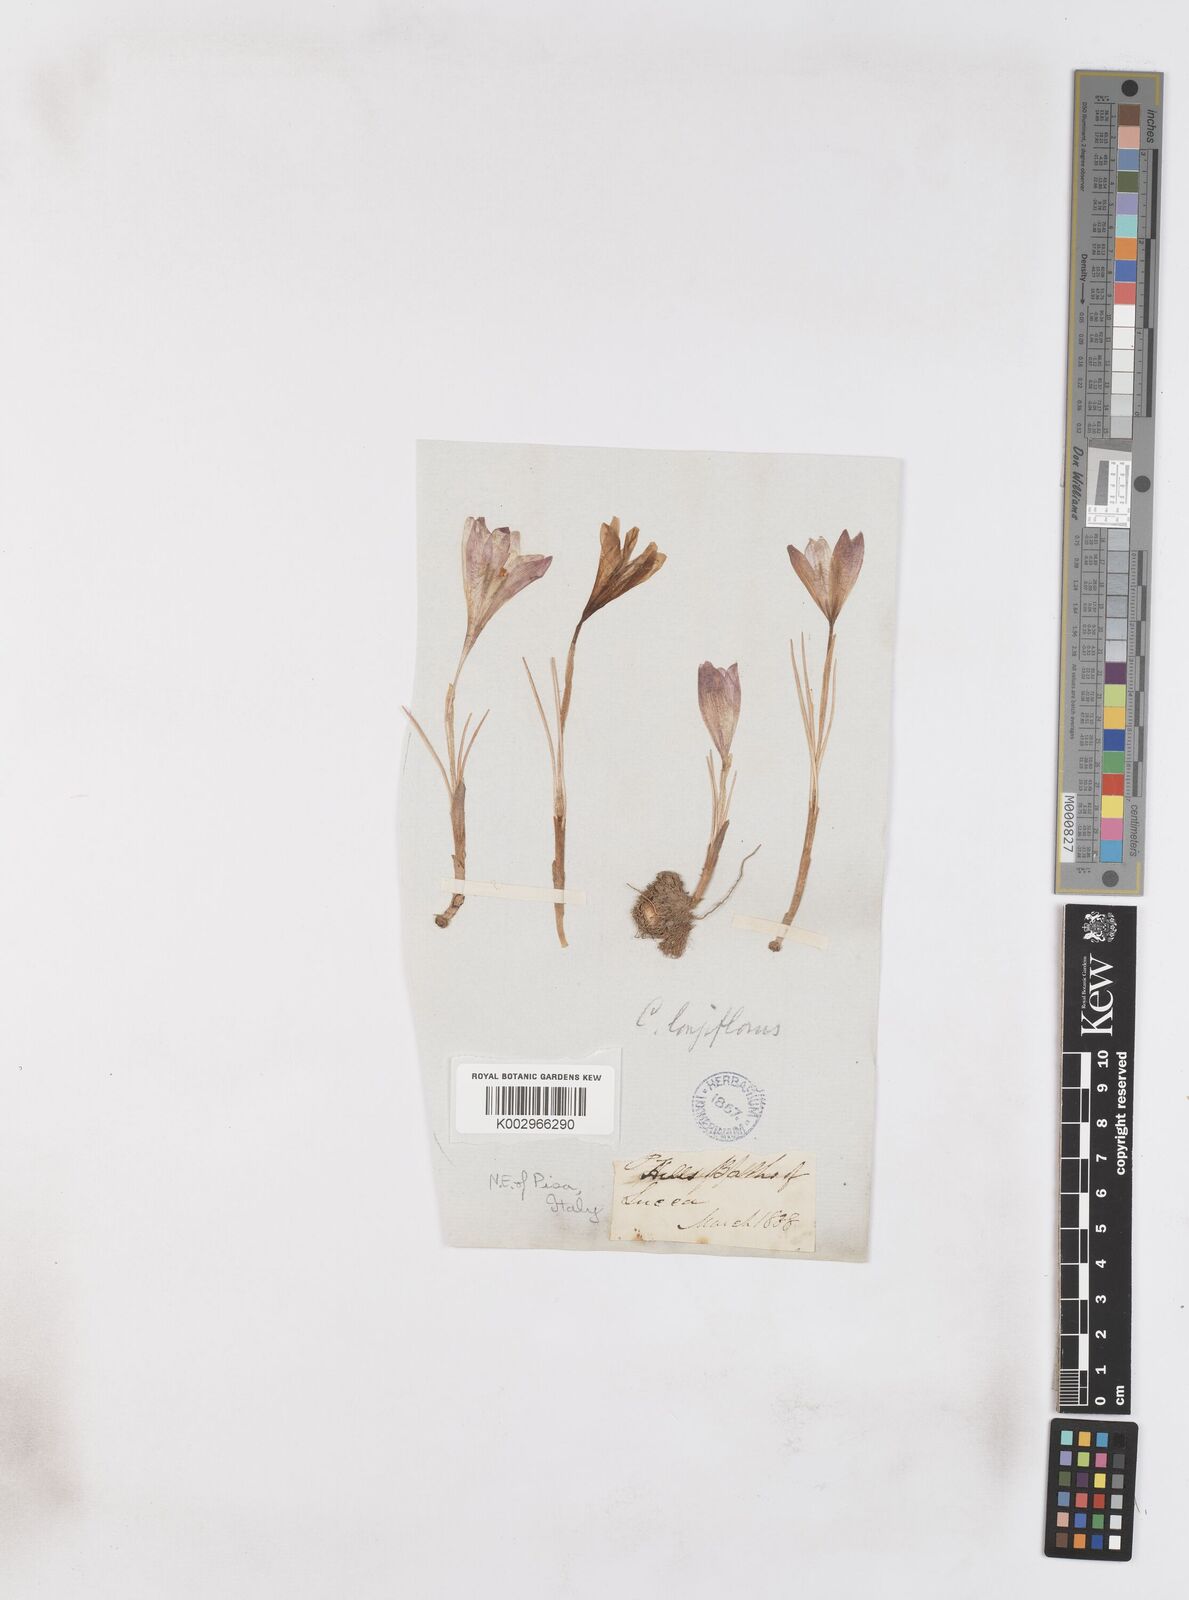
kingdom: Plantae
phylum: Tracheophyta
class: Liliopsida
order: Asparagales
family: Iridaceae
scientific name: Iridaceae
